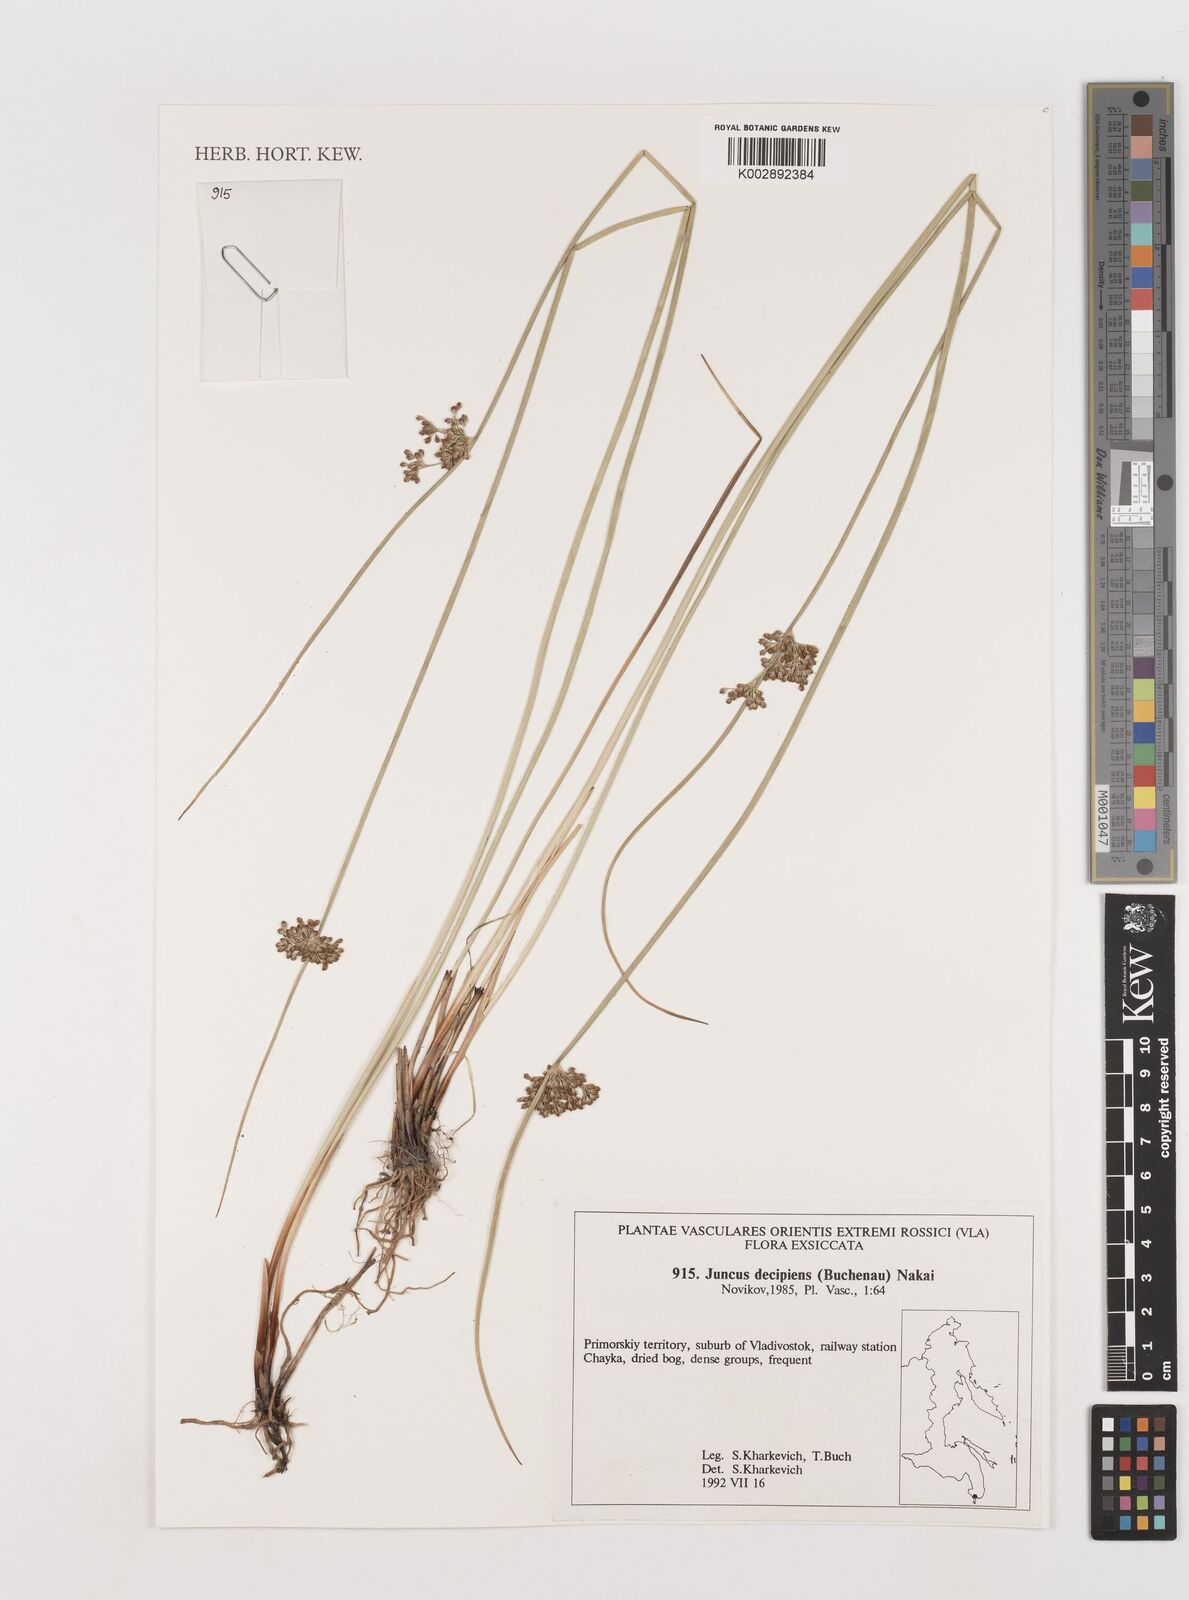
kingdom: Plantae
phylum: Tracheophyta
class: Liliopsida
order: Poales
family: Juncaceae
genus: Juncus
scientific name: Juncus decipiens
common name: Lamp rush
